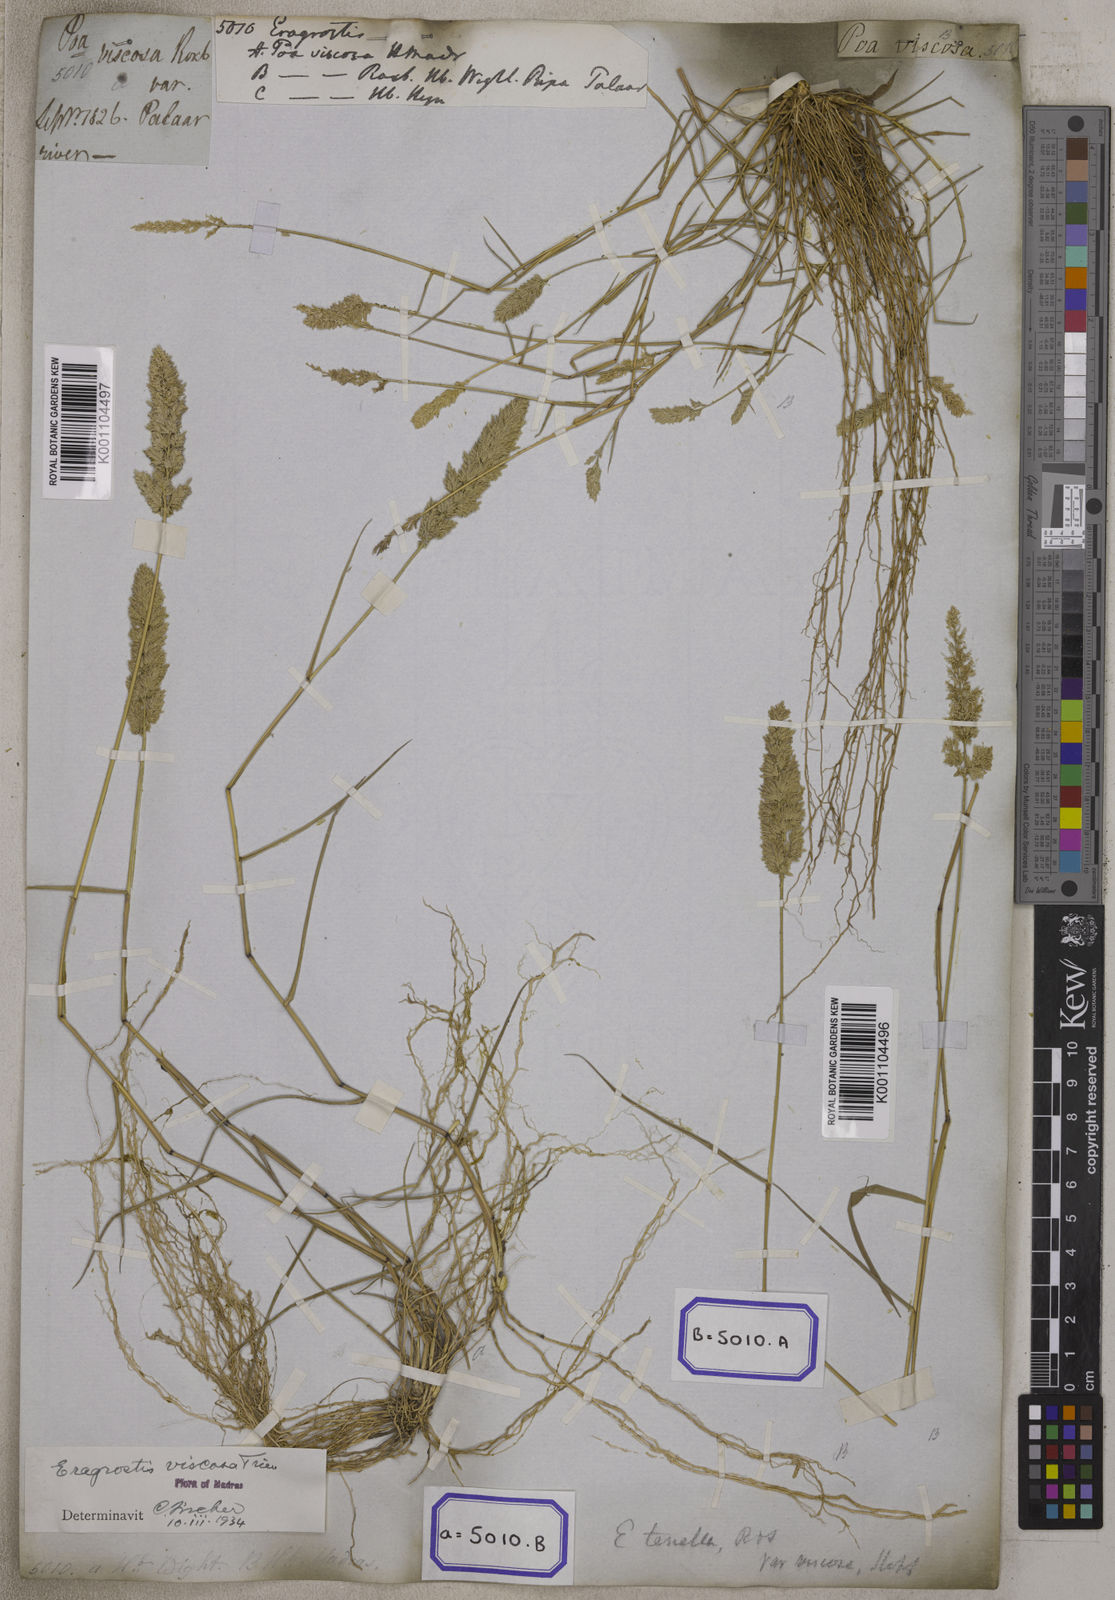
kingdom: Plantae
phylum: Tracheophyta
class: Liliopsida
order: Poales
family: Poaceae
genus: Eragrostis
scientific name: Eragrostis
